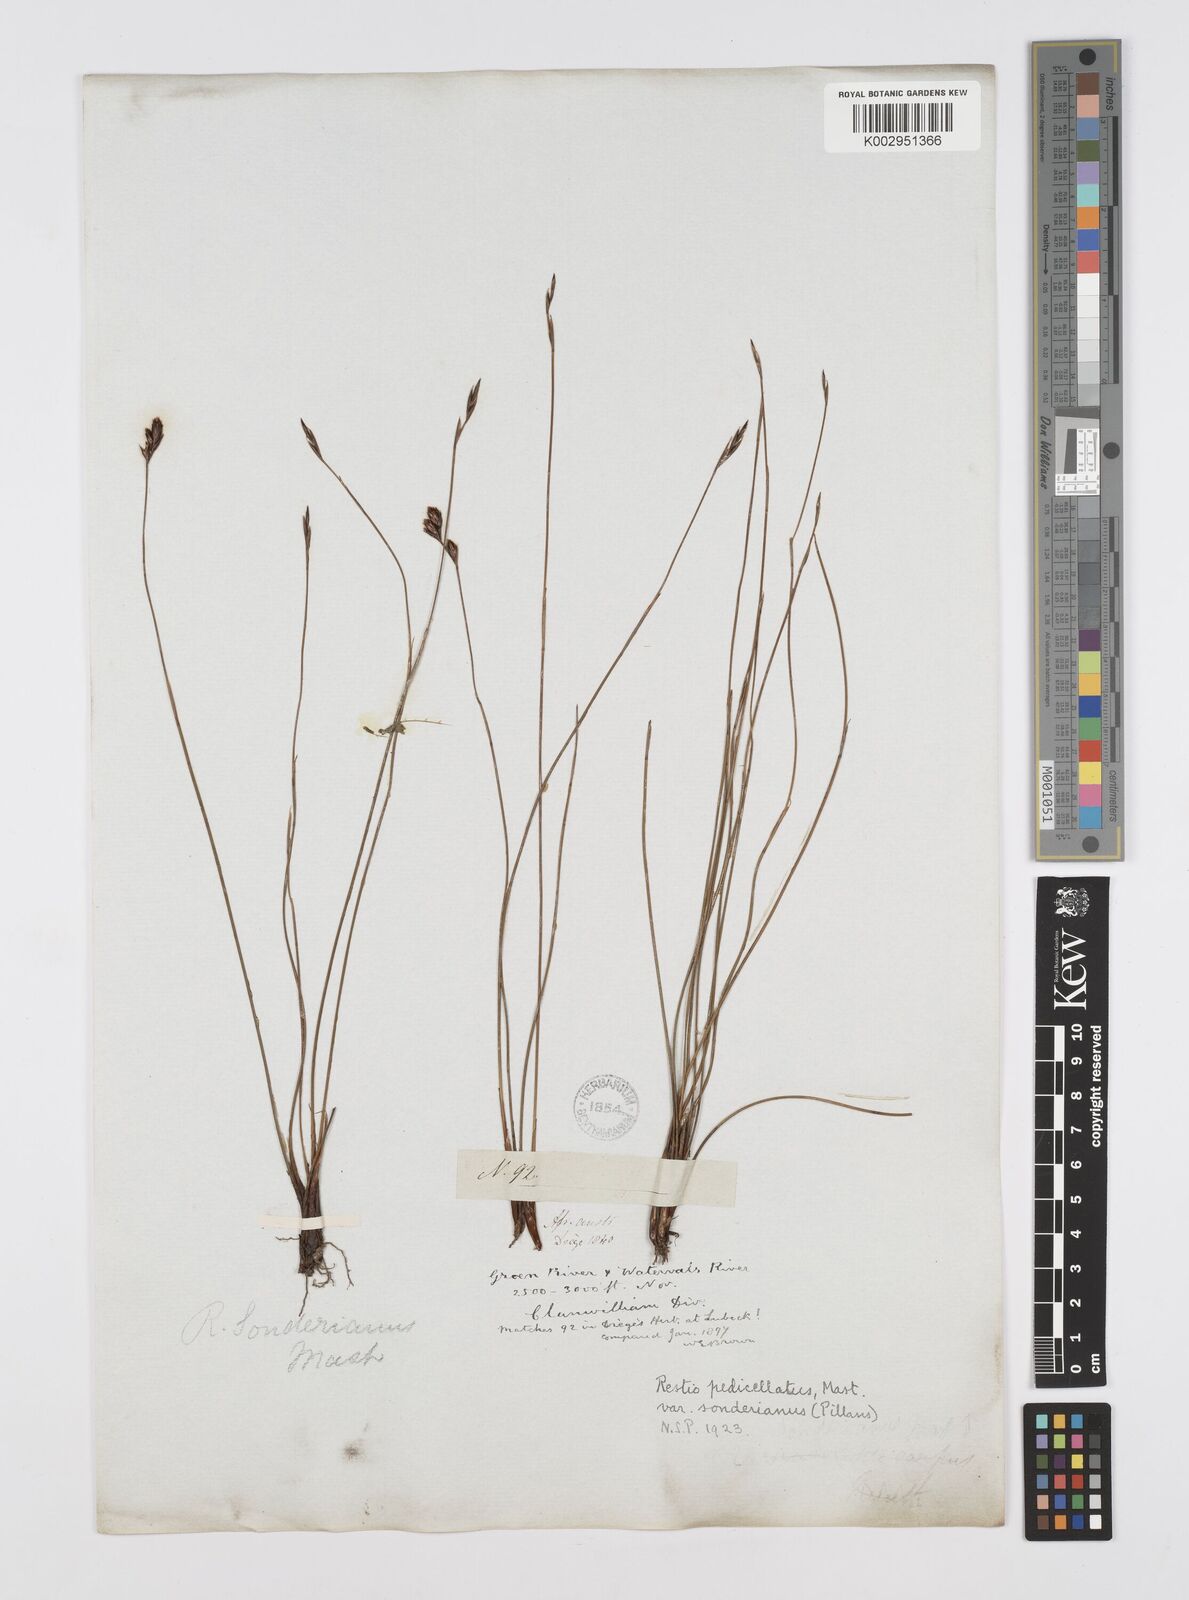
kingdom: Plantae
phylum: Tracheophyta
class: Liliopsida
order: Poales
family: Restionaceae
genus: Restio
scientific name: Restio pedicellatus
